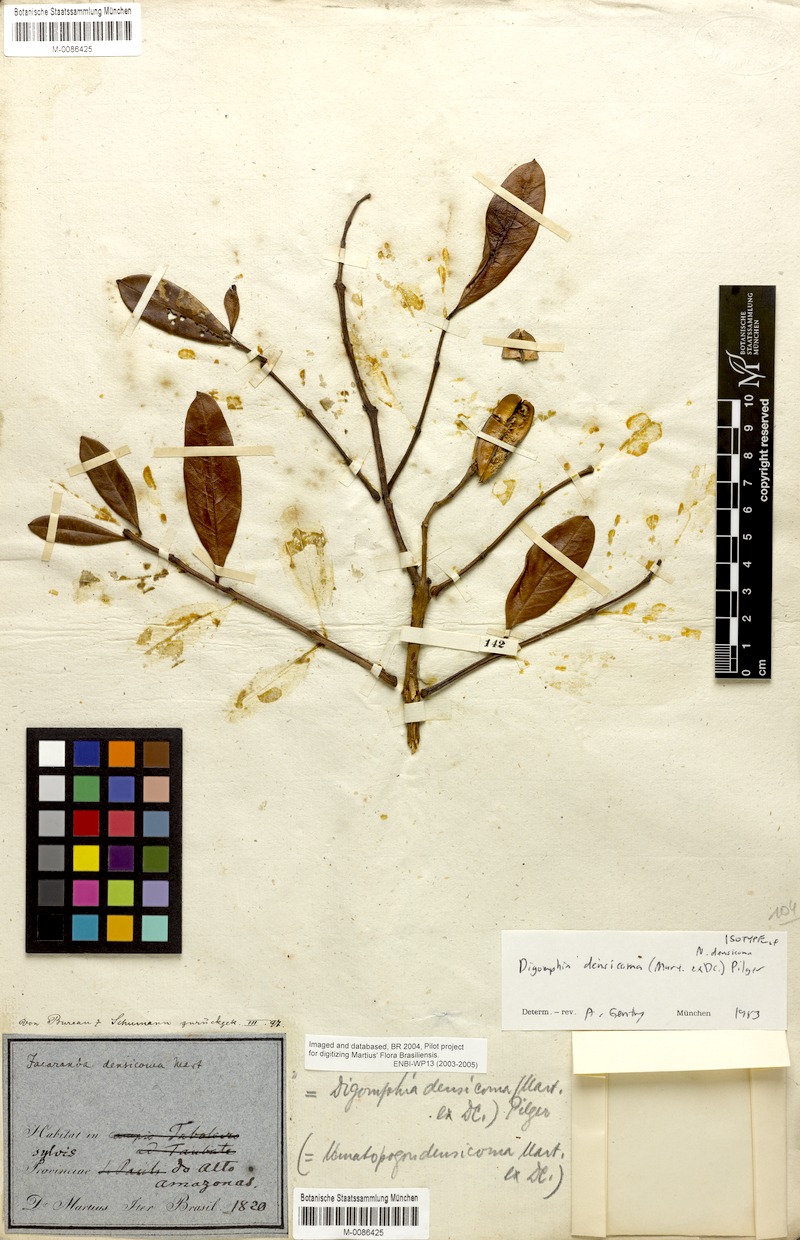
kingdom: Plantae
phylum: Tracheophyta
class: Magnoliopsida
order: Lamiales
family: Bignoniaceae
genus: Digomphia
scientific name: Digomphia densicoma
